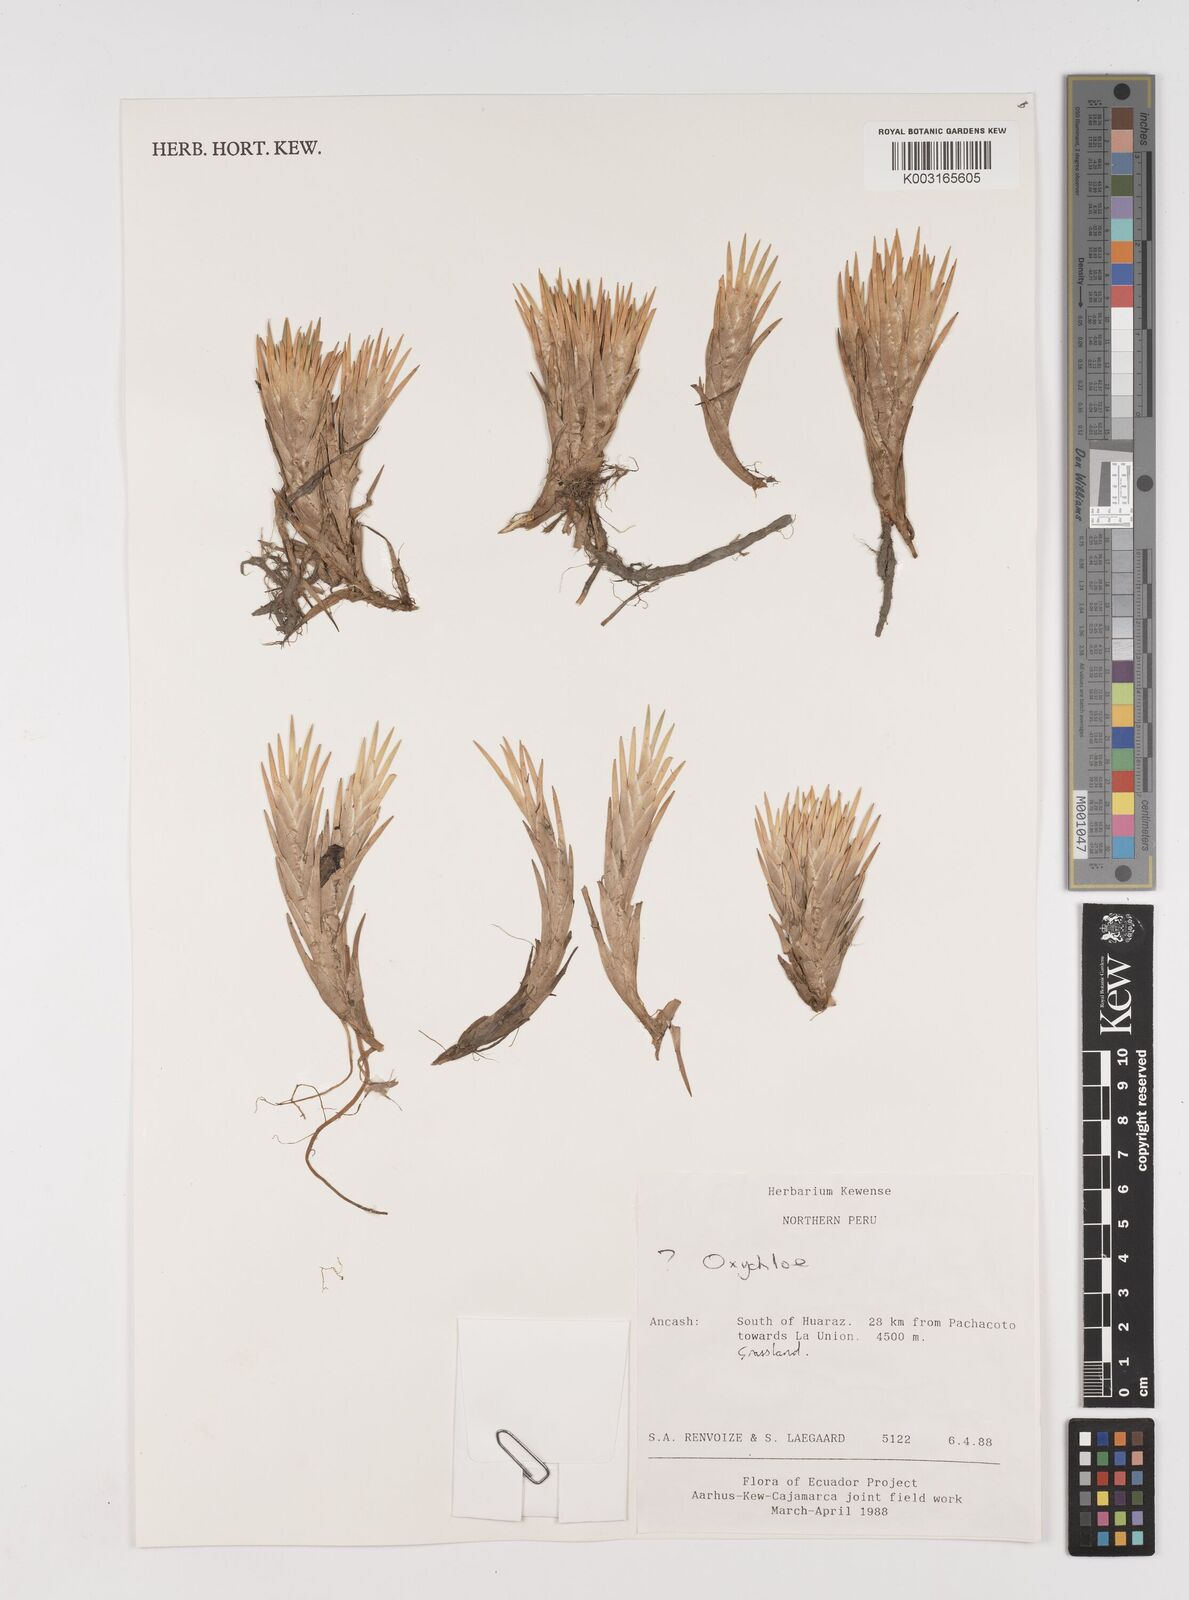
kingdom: Plantae
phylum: Tracheophyta
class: Liliopsida
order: Poales
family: Juncaceae
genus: Oxychloe
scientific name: Oxychloe
